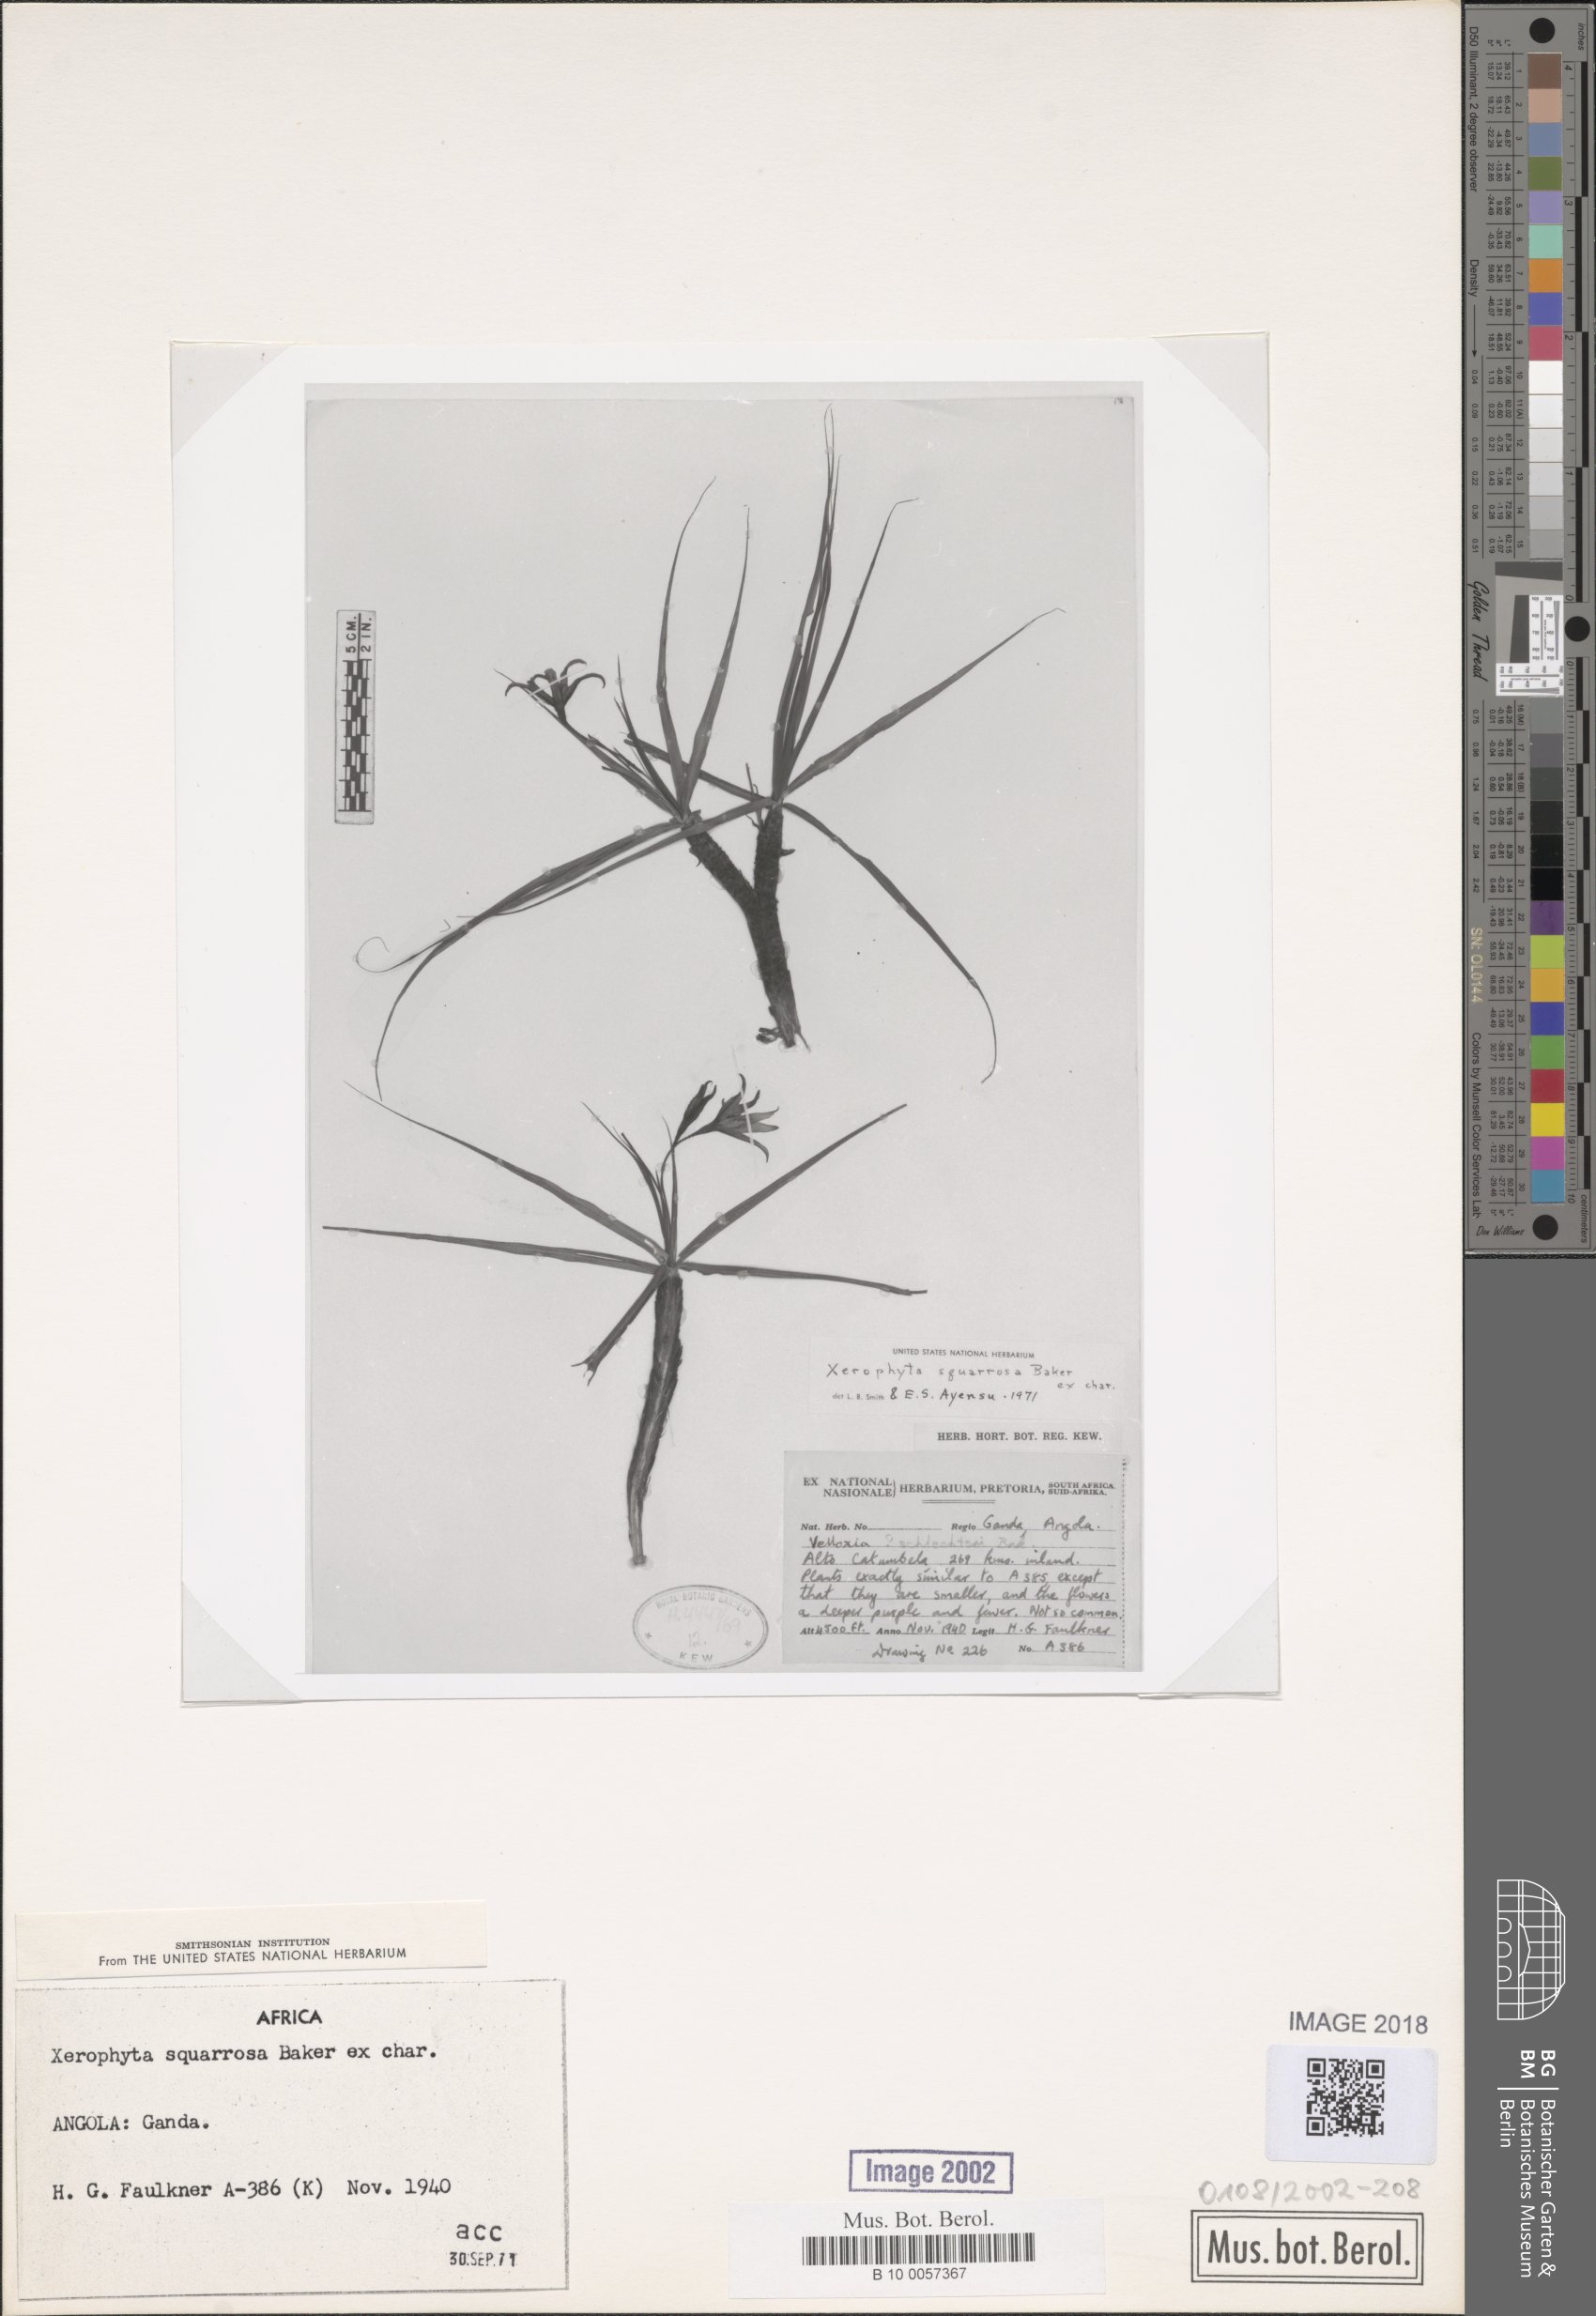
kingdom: Plantae
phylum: Tracheophyta
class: Liliopsida
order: Pandanales
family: Velloziaceae
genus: Xerophyta
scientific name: Xerophyta squarrosa
